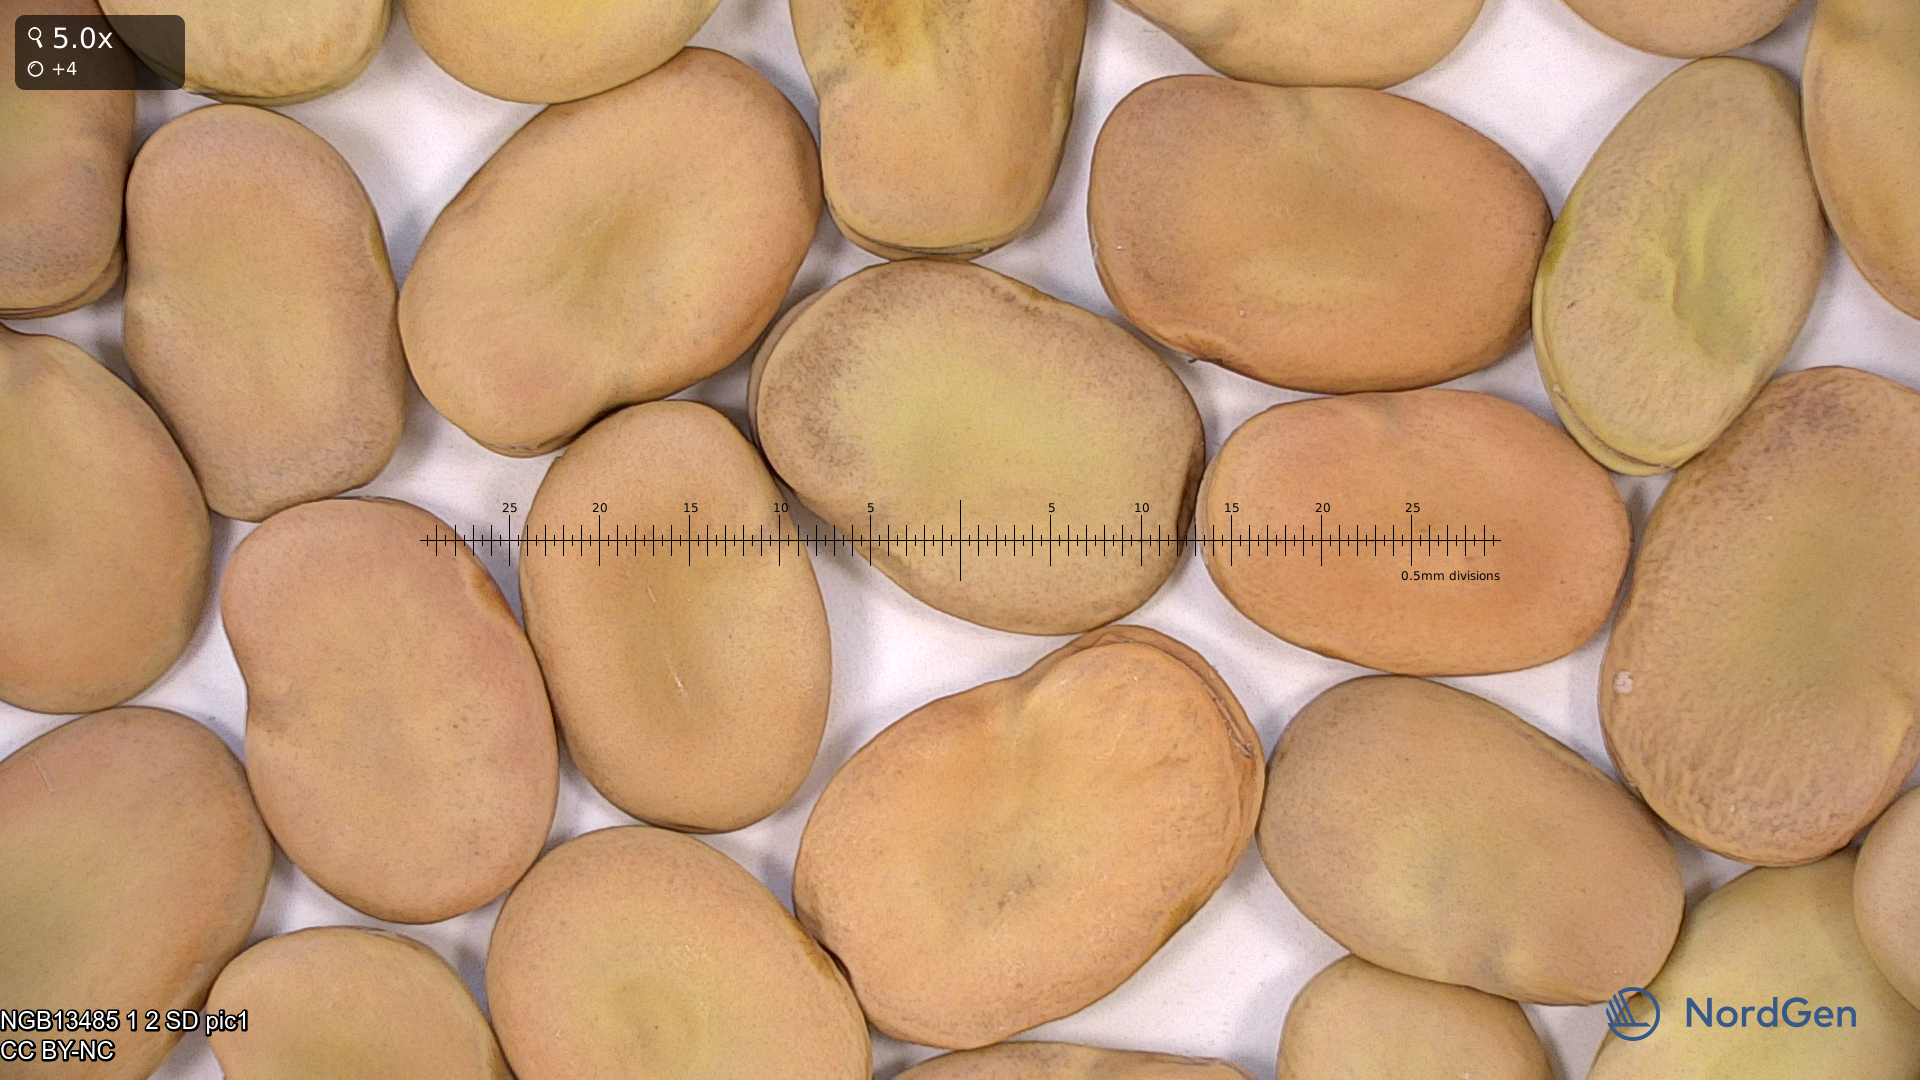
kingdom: Plantae
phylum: Tracheophyta
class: Magnoliopsida
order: Fabales
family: Fabaceae
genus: Vicia
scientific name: Vicia faba
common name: Broad bean
